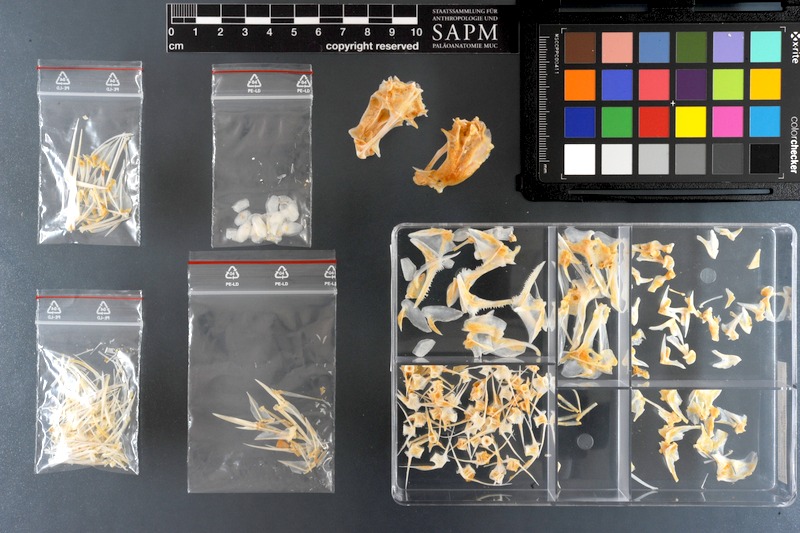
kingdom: Animalia
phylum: Chordata
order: Perciformes
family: Nemipteridae
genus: Scolopsis
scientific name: Scolopsis ghanam
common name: Arabian monocle bream
